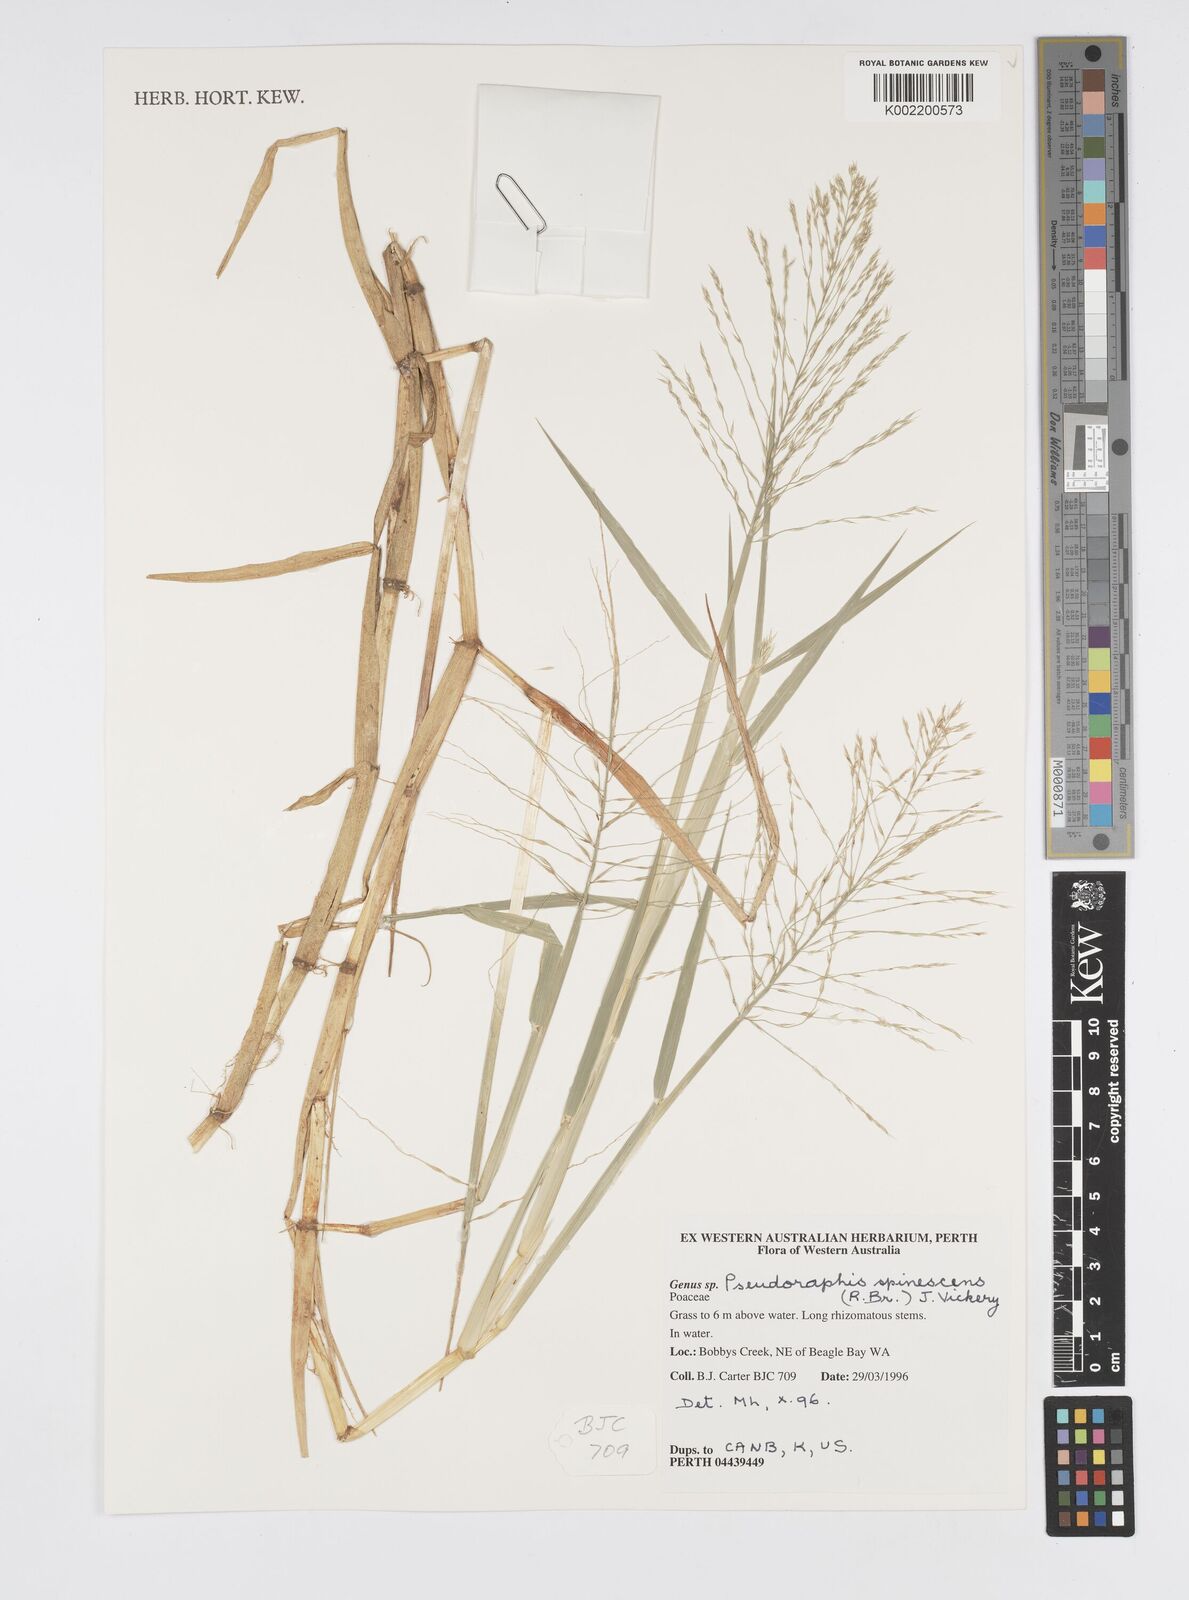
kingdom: Plantae
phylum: Tracheophyta
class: Liliopsida
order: Poales
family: Poaceae
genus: Pseudoraphis
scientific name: Pseudoraphis spinescens
